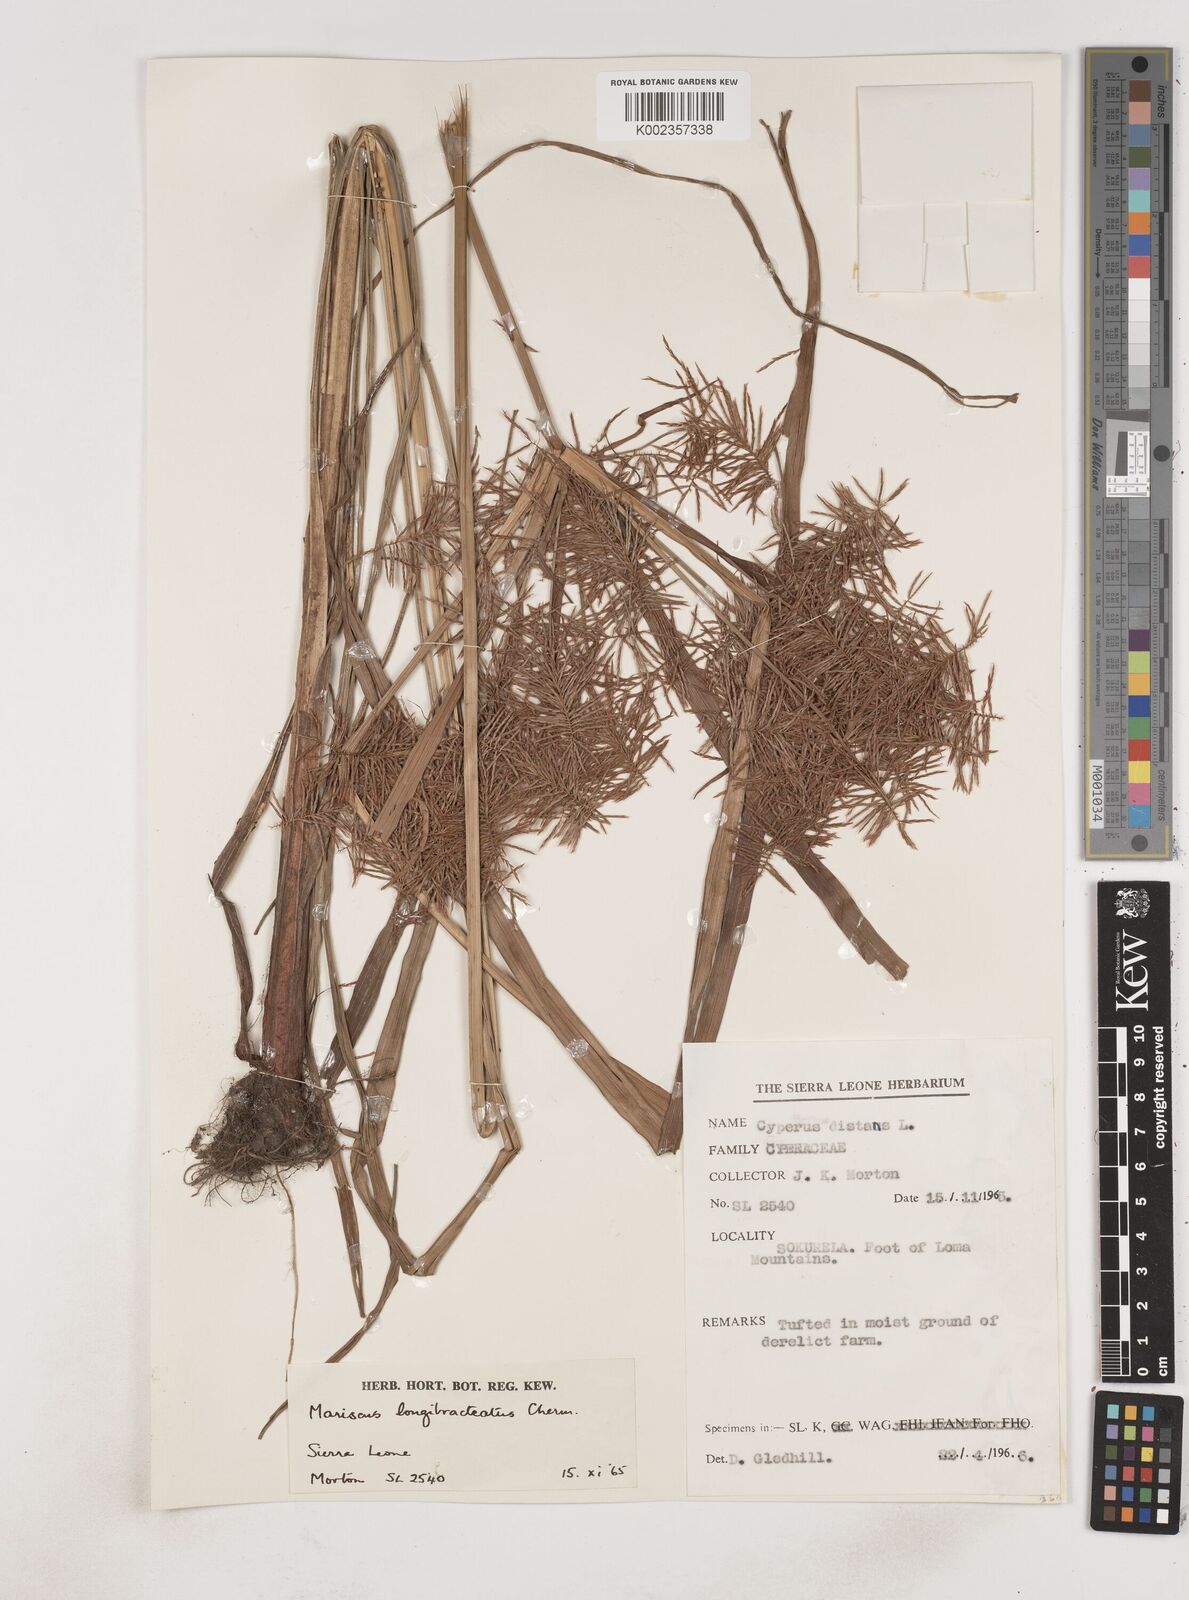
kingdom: Plantae
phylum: Tracheophyta
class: Liliopsida
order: Poales
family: Cyperaceae
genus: Cyperus
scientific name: Cyperus distans
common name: Slender cyperus
